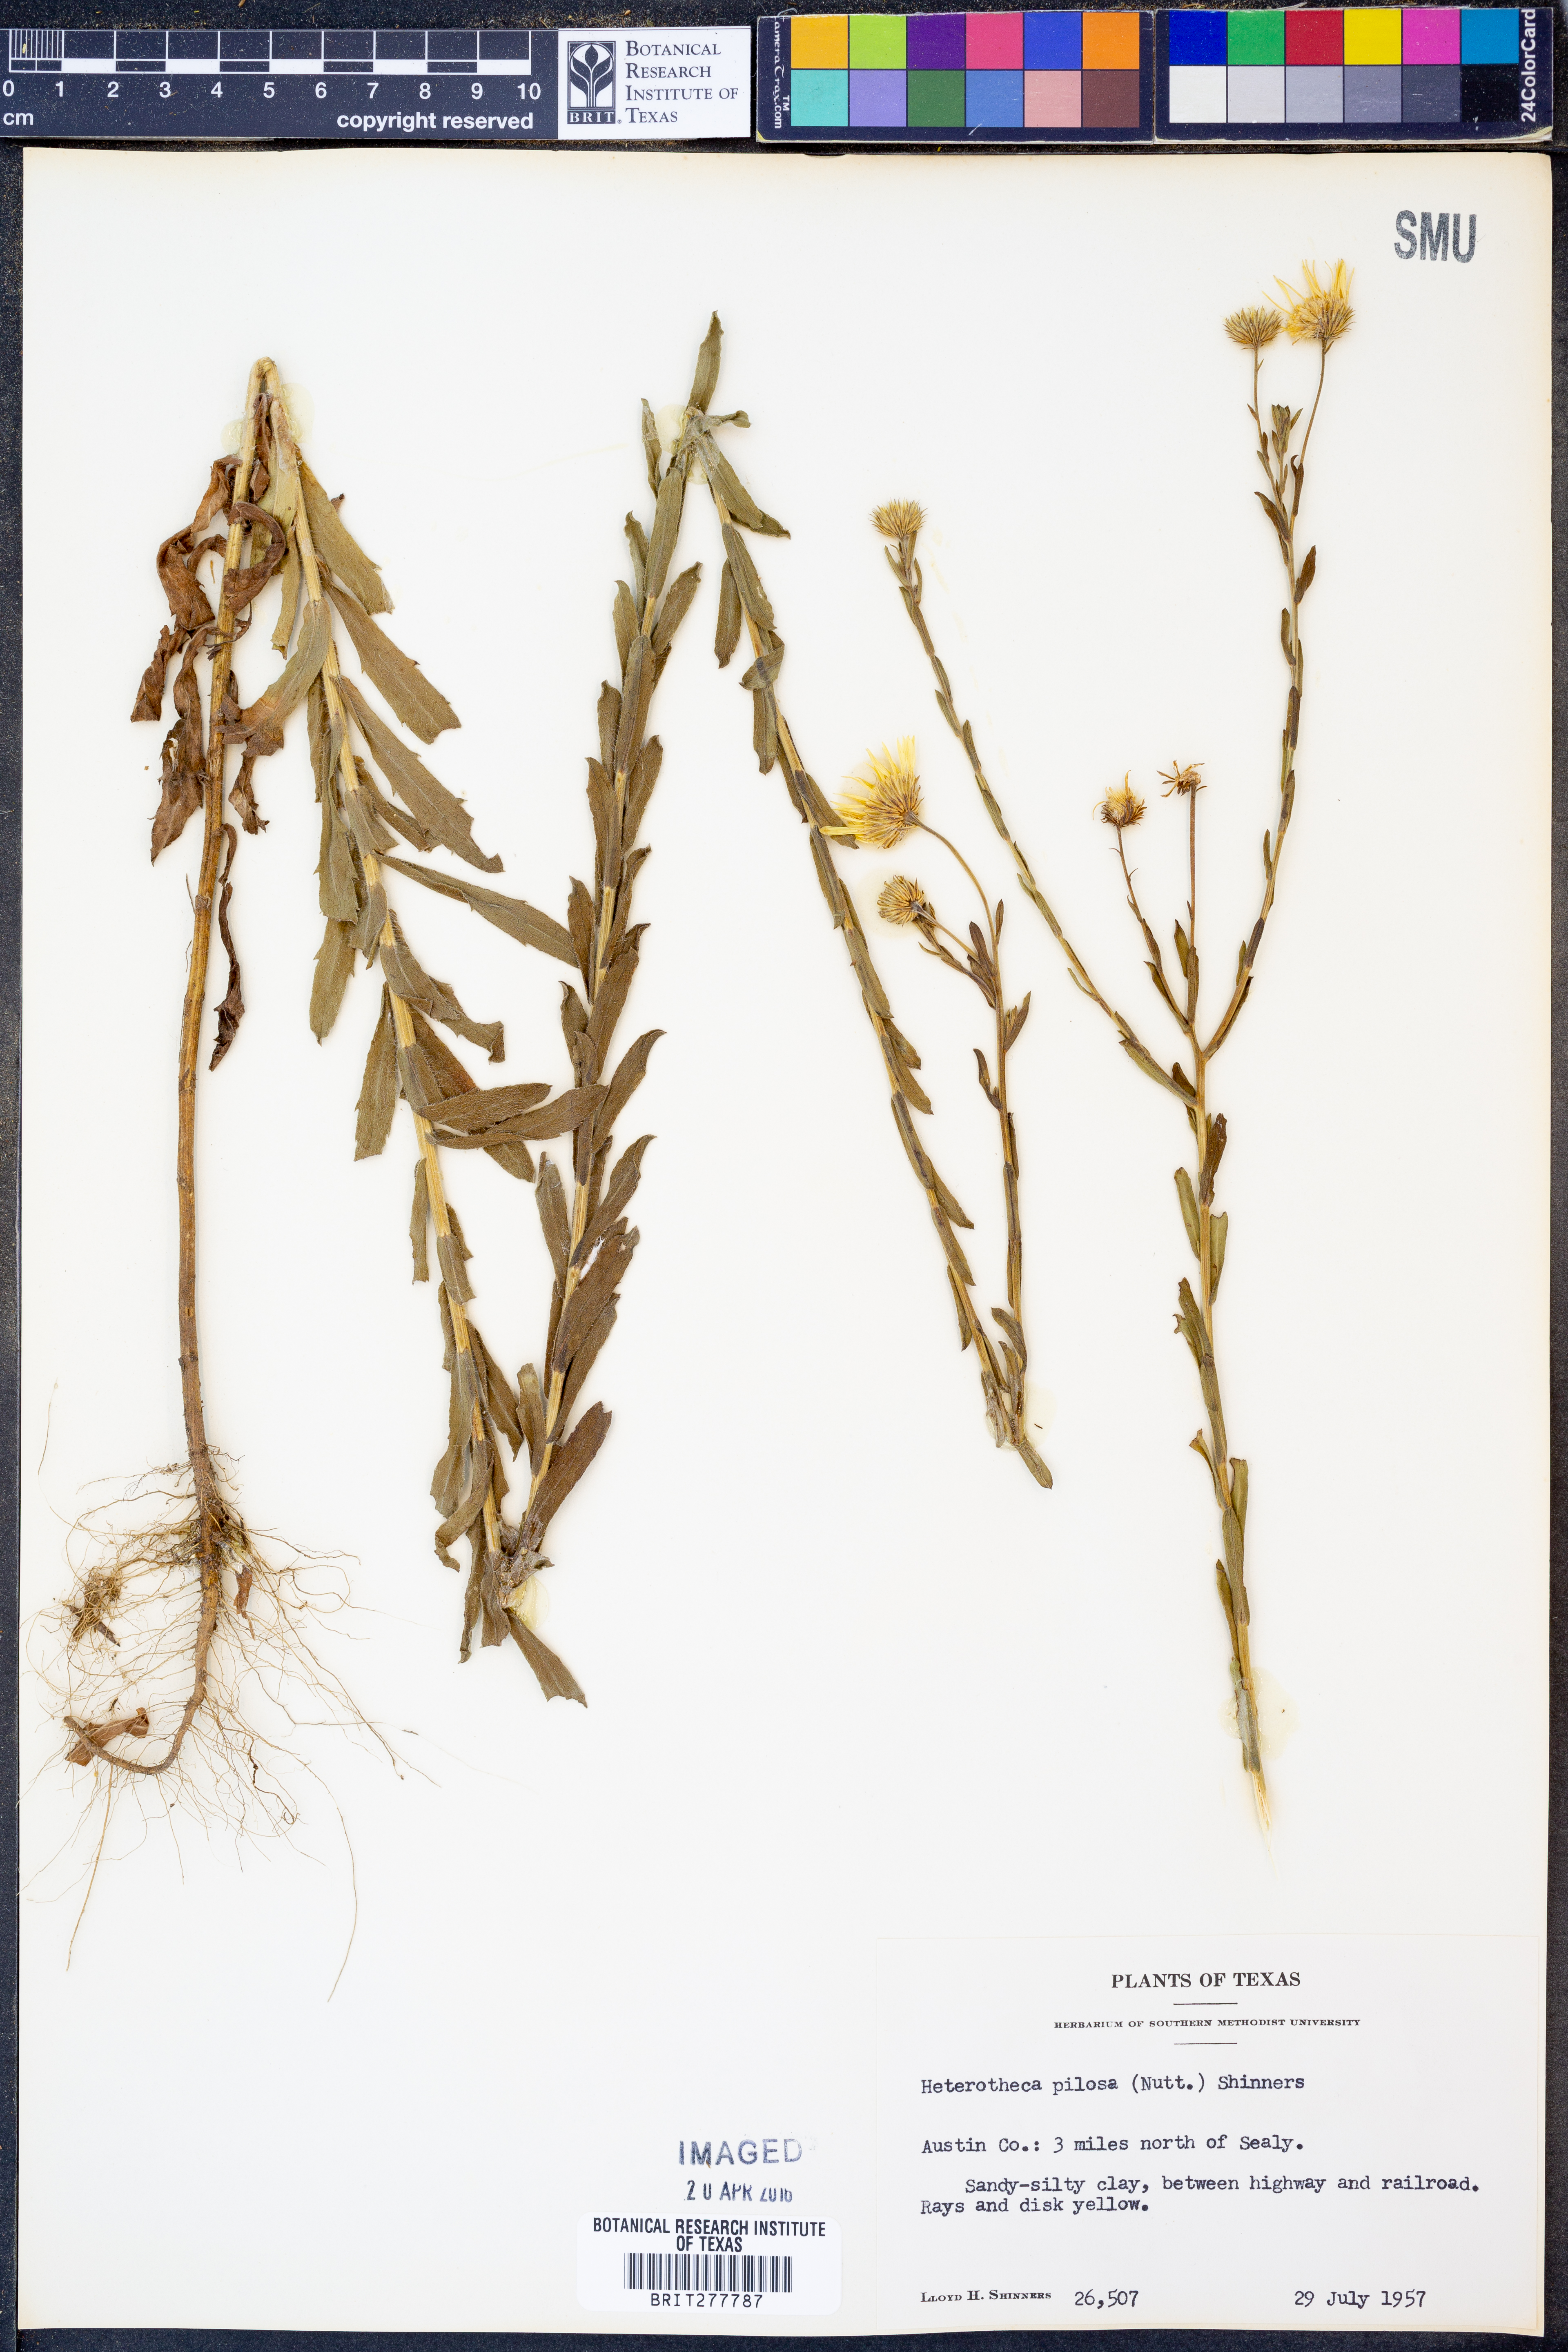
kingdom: Plantae
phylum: Tracheophyta
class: Magnoliopsida
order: Asterales
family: Asteraceae
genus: Bradburia
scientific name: Bradburia pilosa
